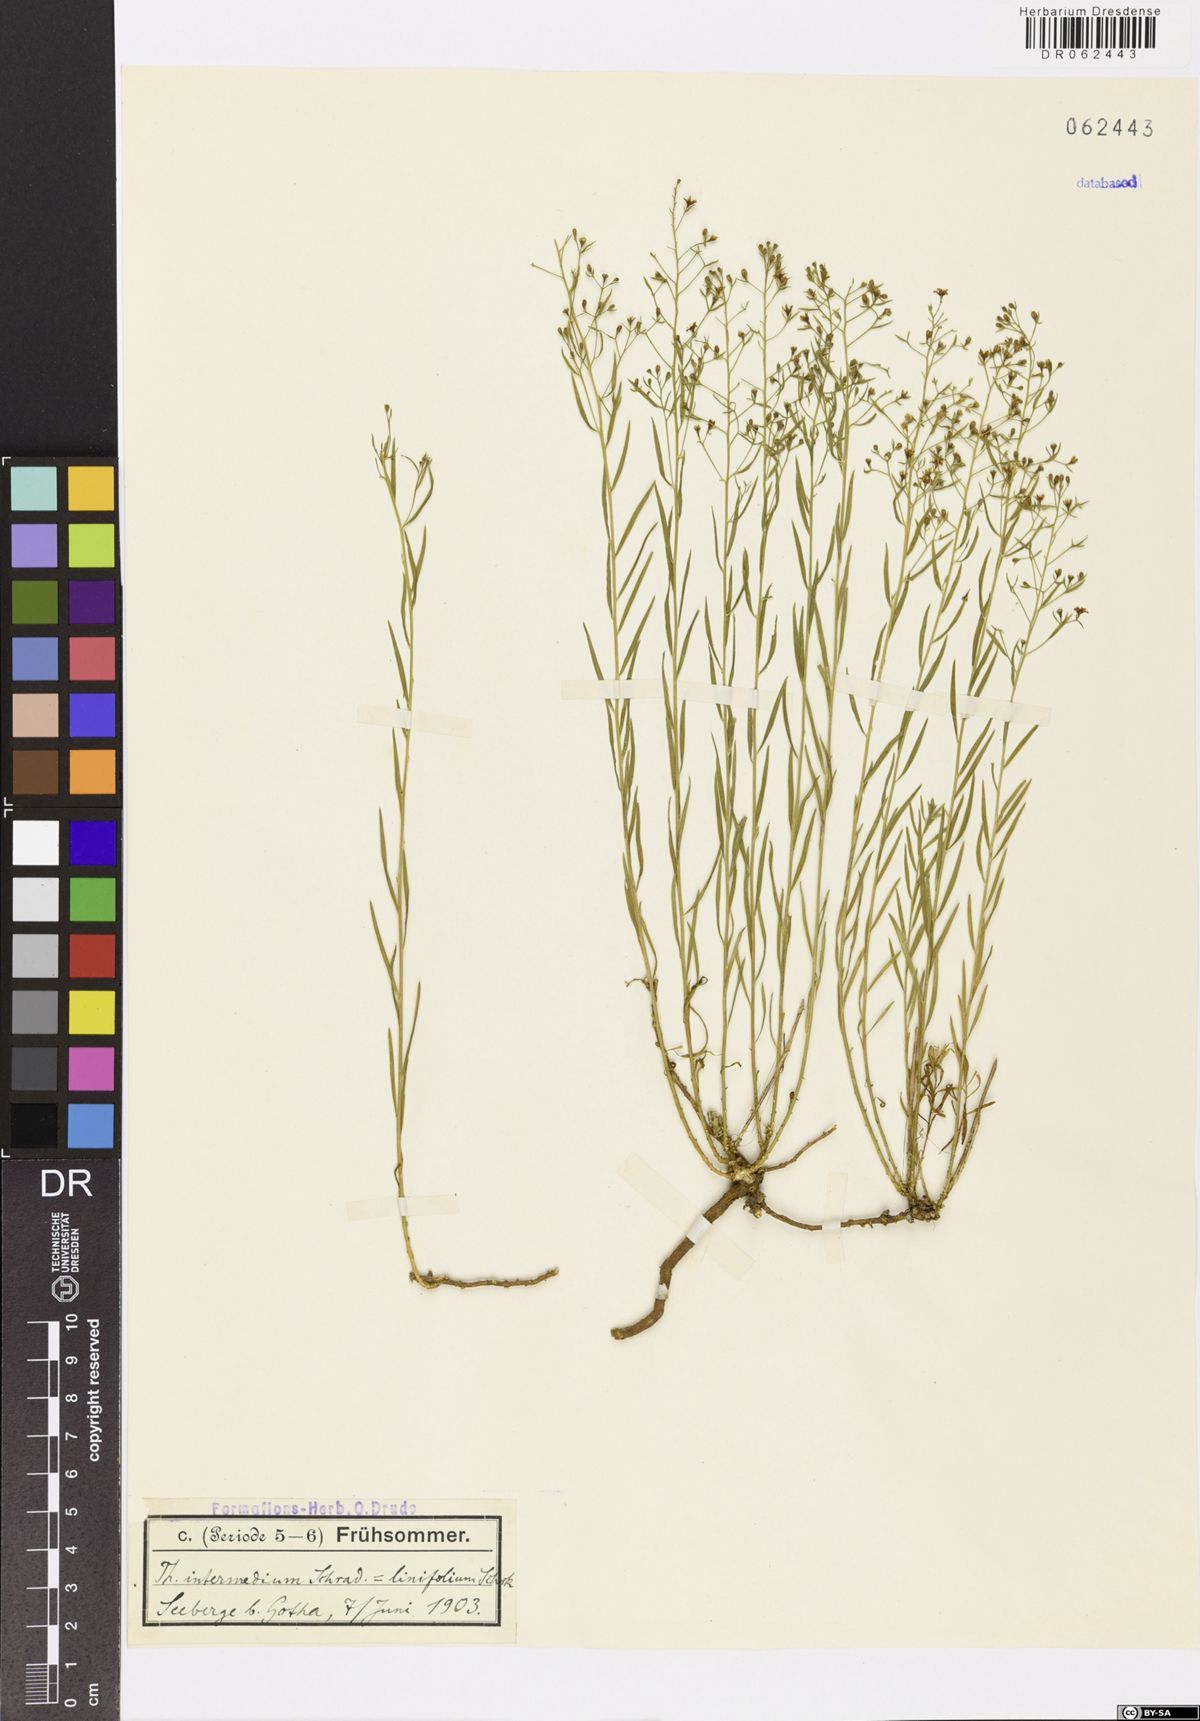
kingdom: Plantae
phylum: Tracheophyta
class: Magnoliopsida
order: Santalales
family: Thesiaceae
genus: Thesium
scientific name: Thesium linophyllon
